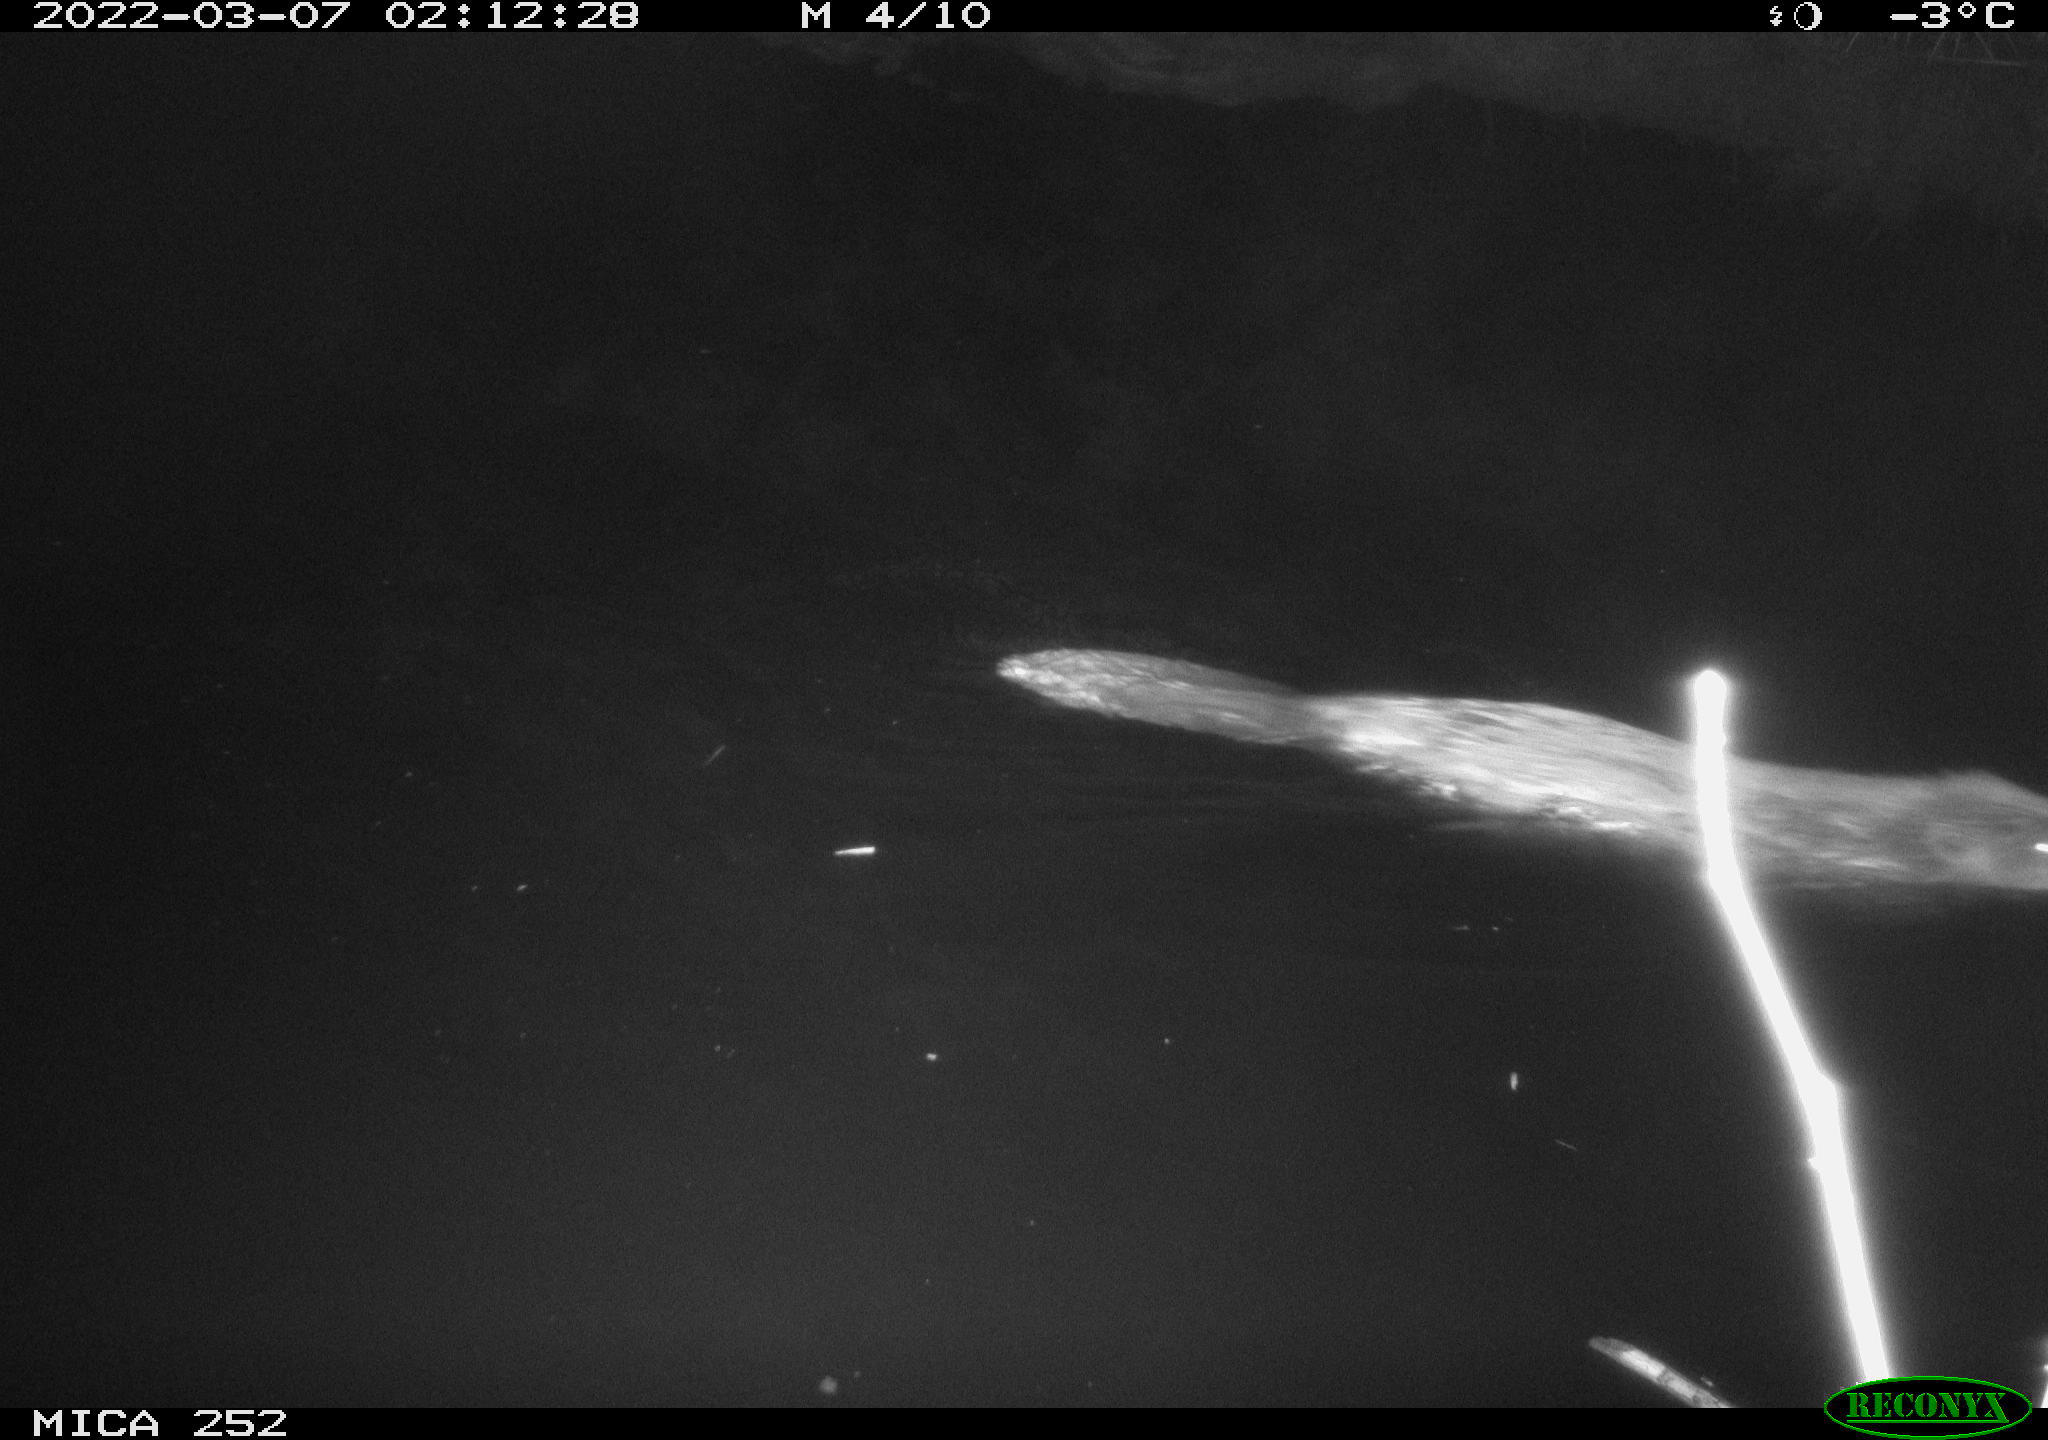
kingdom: Animalia
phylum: Chordata
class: Mammalia
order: Rodentia
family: Castoridae
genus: Castor
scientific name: Castor fiber
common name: Eurasian beaver
